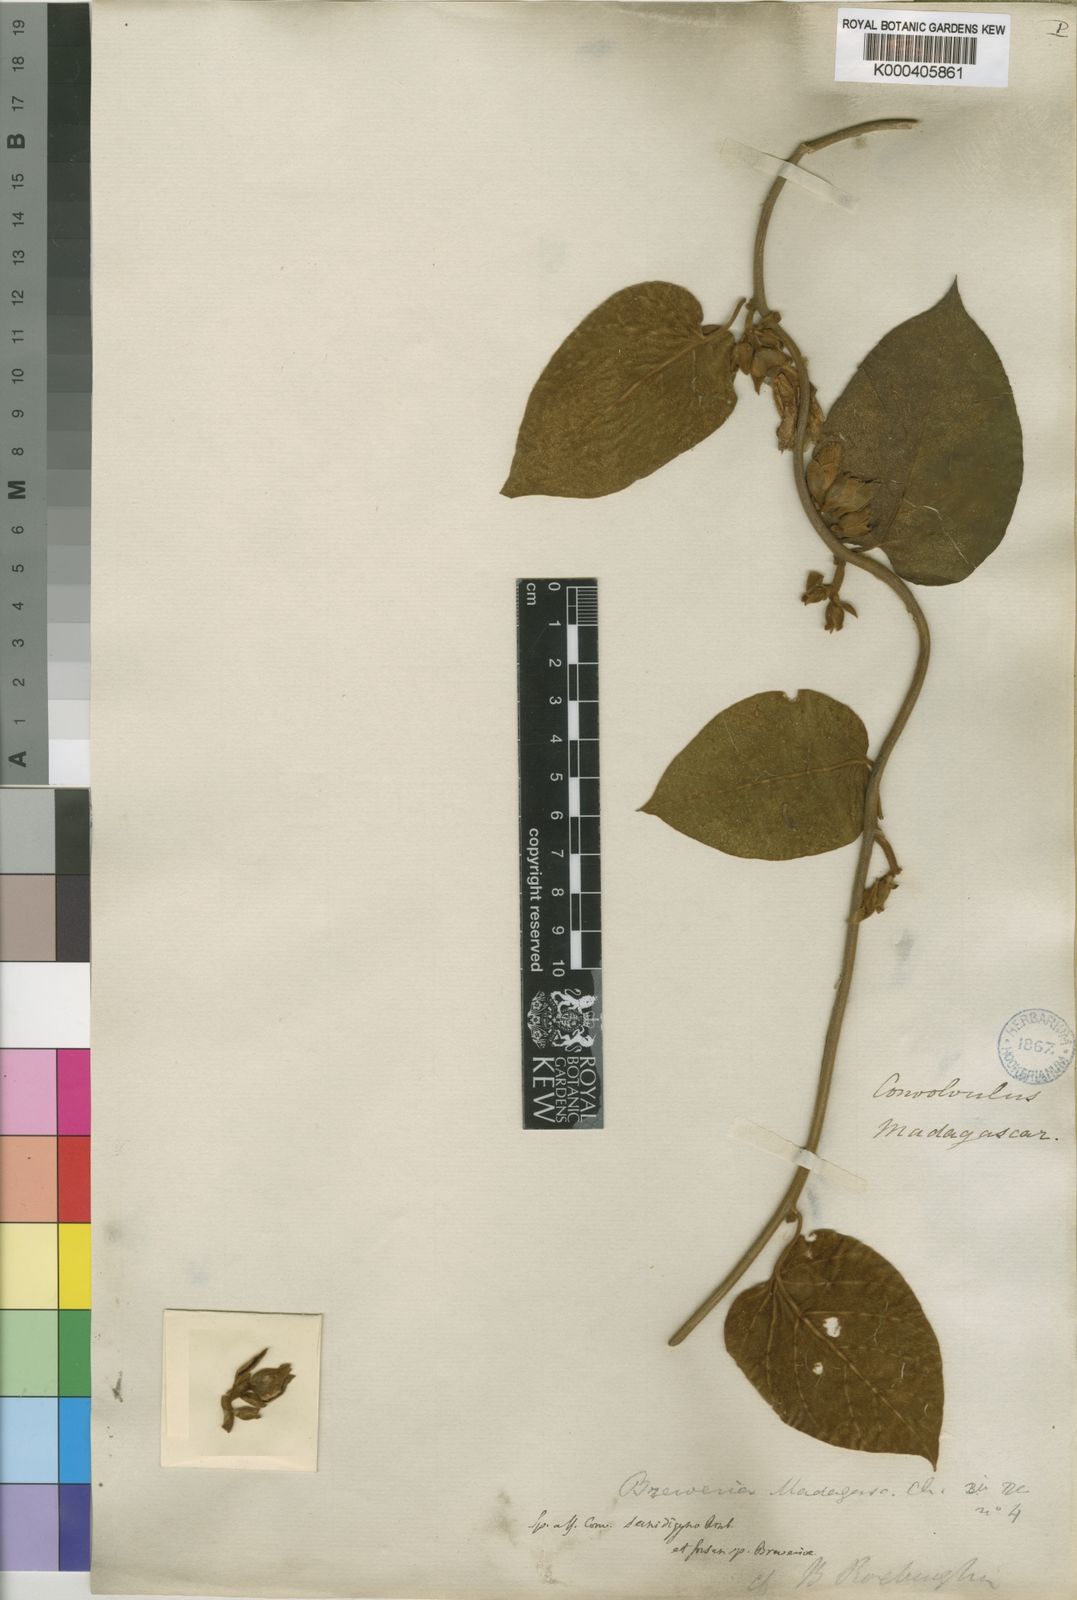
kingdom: Plantae
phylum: Tracheophyta
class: Magnoliopsida
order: Solanales
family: Convolvulaceae
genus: Bonamia
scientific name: Bonamia semidigyna
